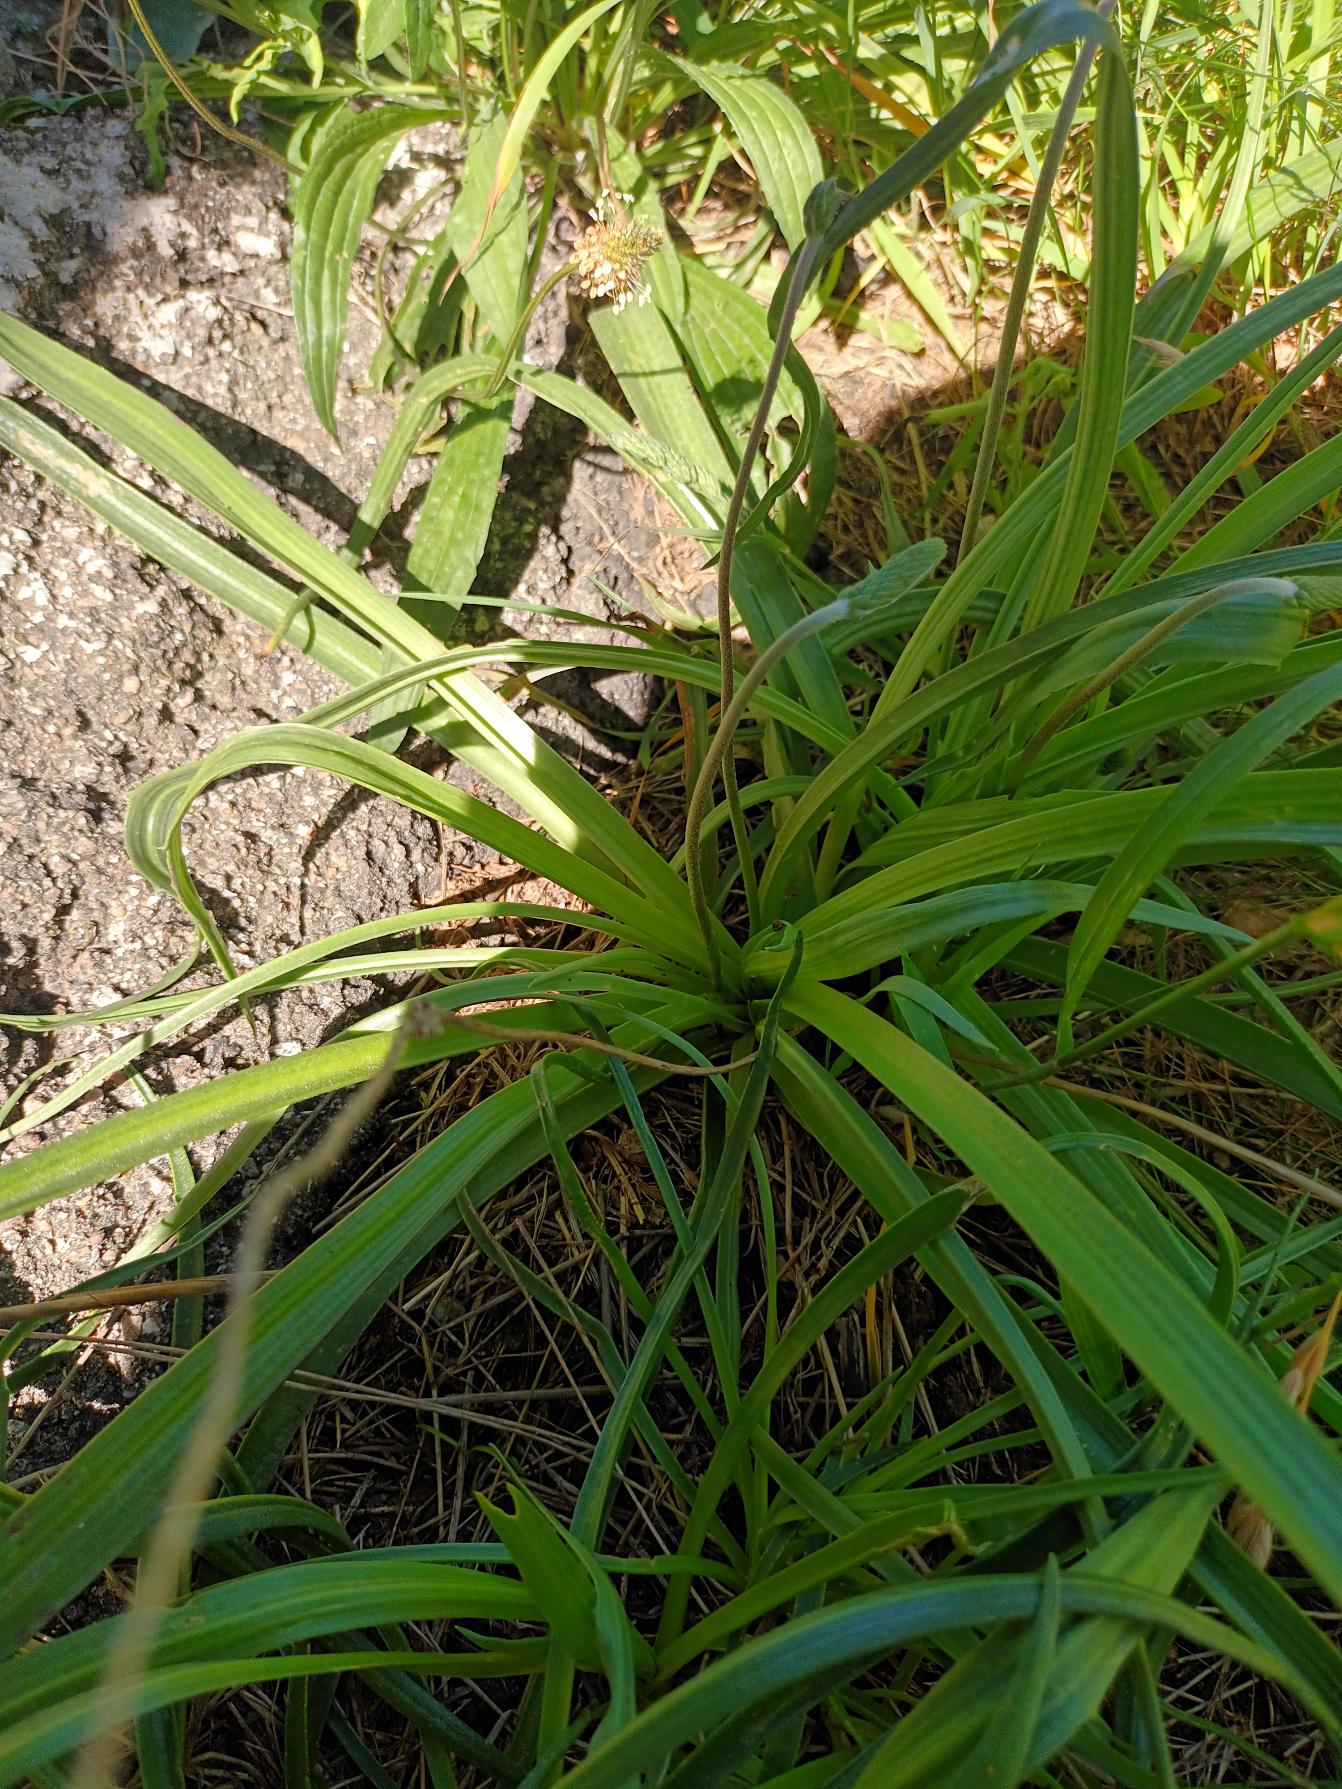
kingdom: Plantae
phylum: Tracheophyta
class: Magnoliopsida
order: Lamiales
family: Plantaginaceae
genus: Plantago
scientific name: Plantago maritima
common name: Strand-vejbred
